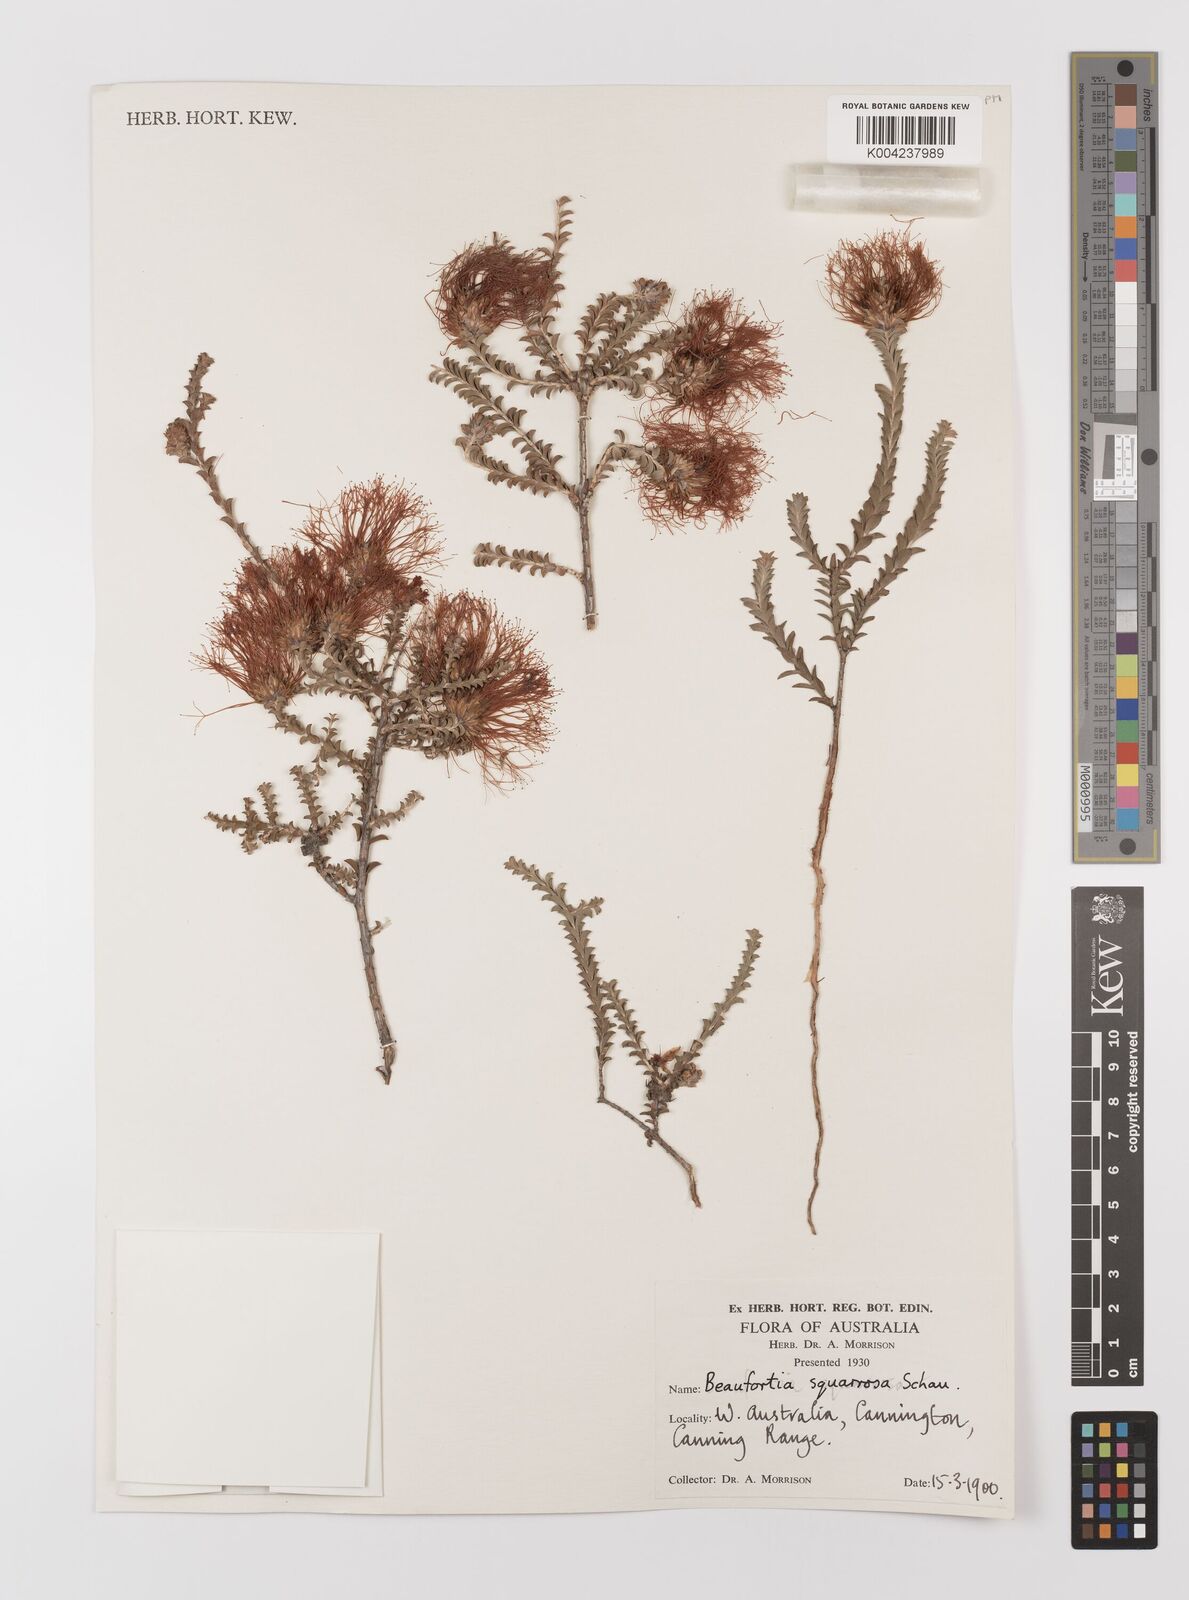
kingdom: Plantae
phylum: Tracheophyta
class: Magnoliopsida
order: Myrtales
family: Myrtaceae
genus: Melaleuca
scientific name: Melaleuca pulcherrima
